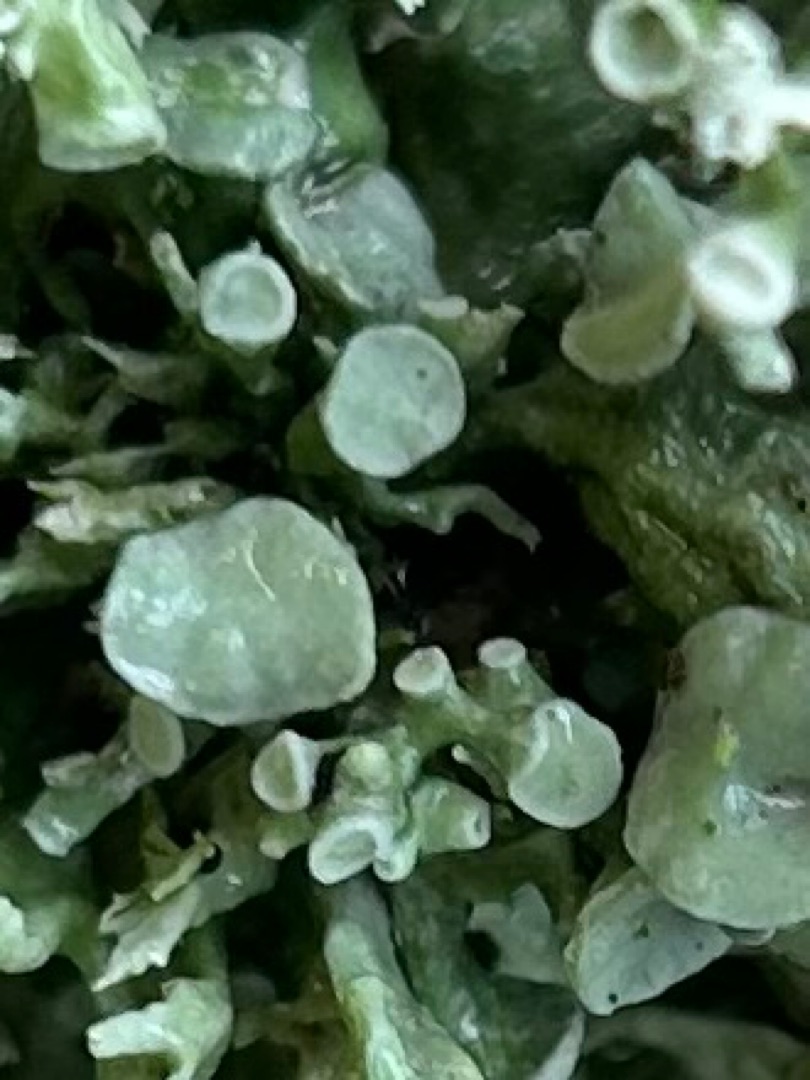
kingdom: Fungi
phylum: Ascomycota
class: Lecanoromycetes
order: Lecanorales
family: Ramalinaceae
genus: Ramalina
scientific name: Ramalina fastigiata
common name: Tue-grenlav
